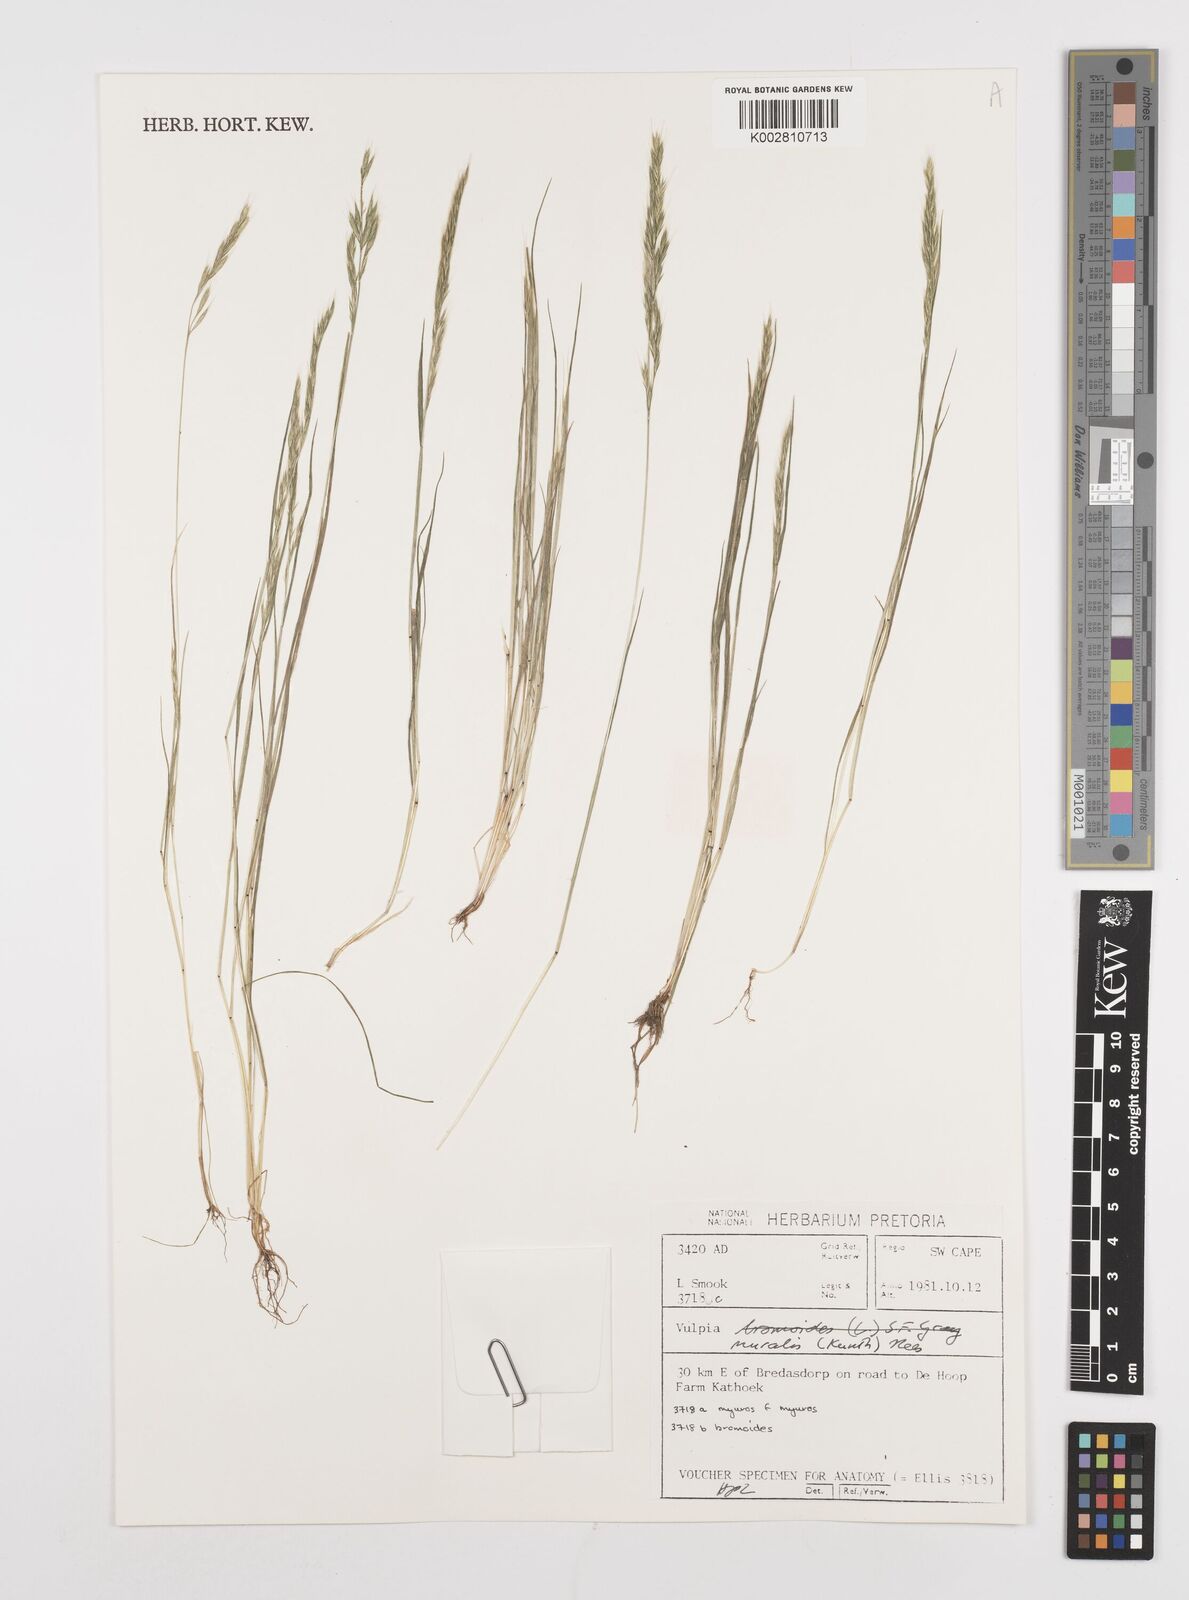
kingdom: Plantae
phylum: Tracheophyta
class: Liliopsida
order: Poales
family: Poaceae
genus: Festuca
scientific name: Festuca muralis
